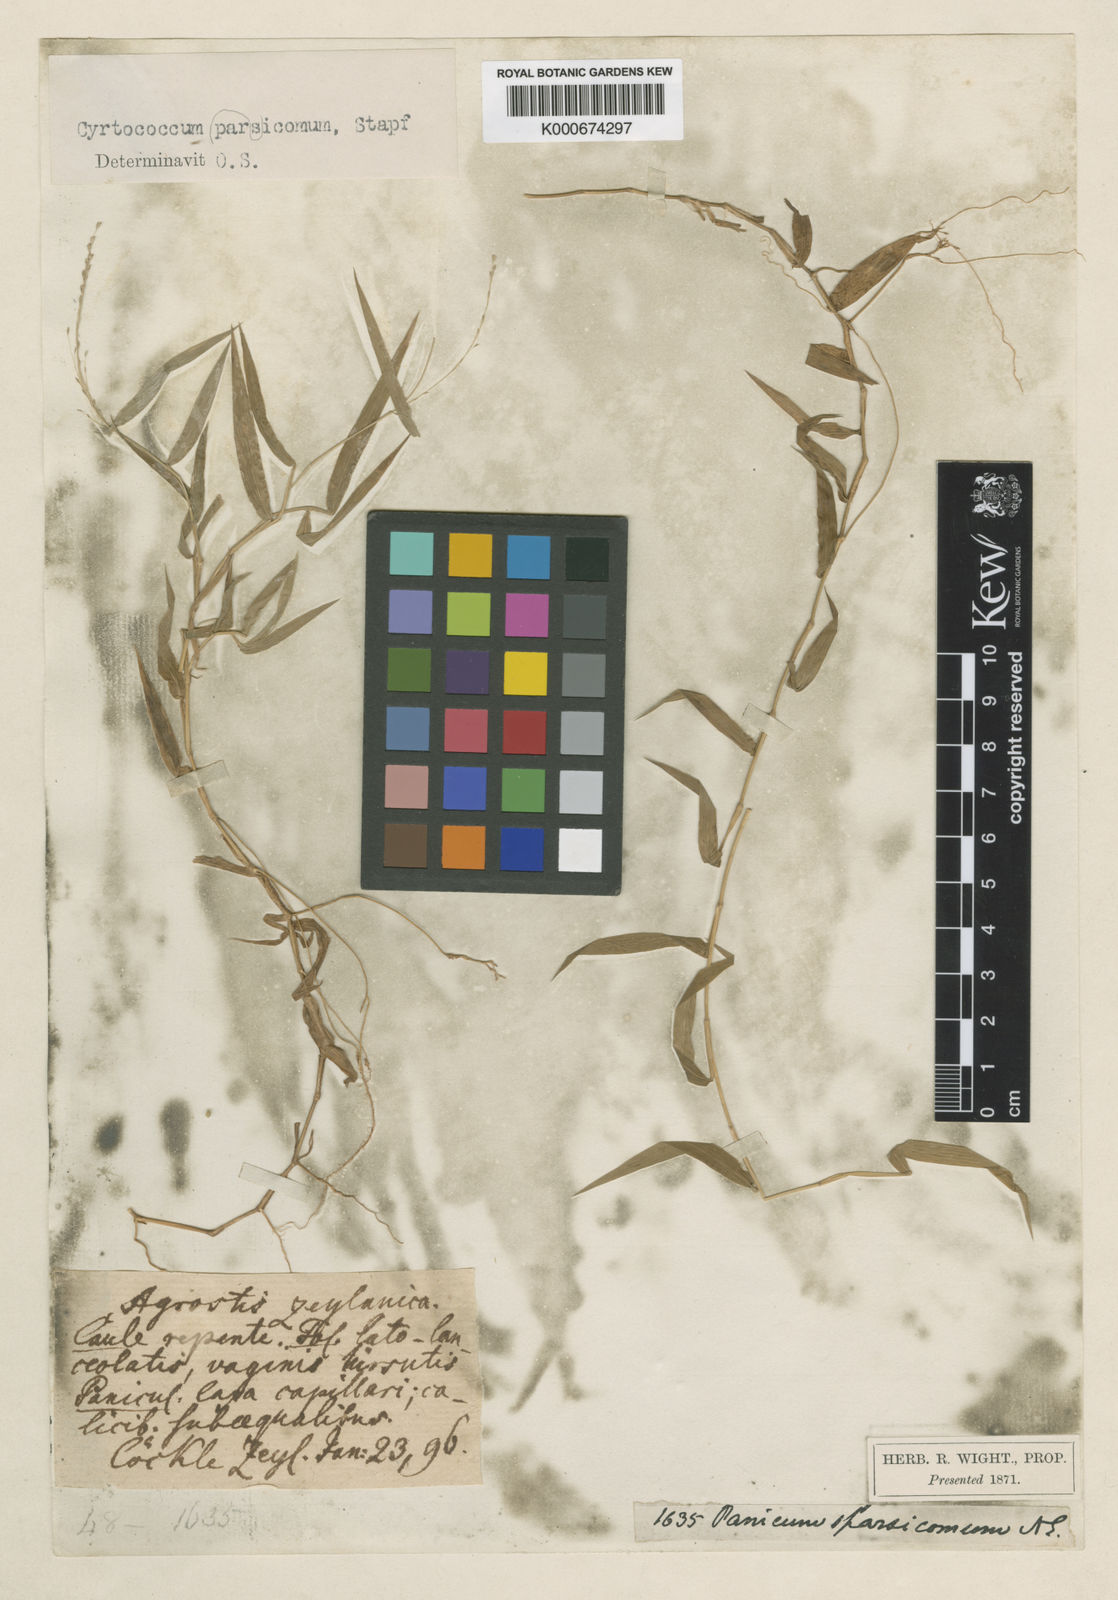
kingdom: Plantae
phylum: Tracheophyta
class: Liliopsida
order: Poales
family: Poaceae
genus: Panicum
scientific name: Panicum sparsicomum
